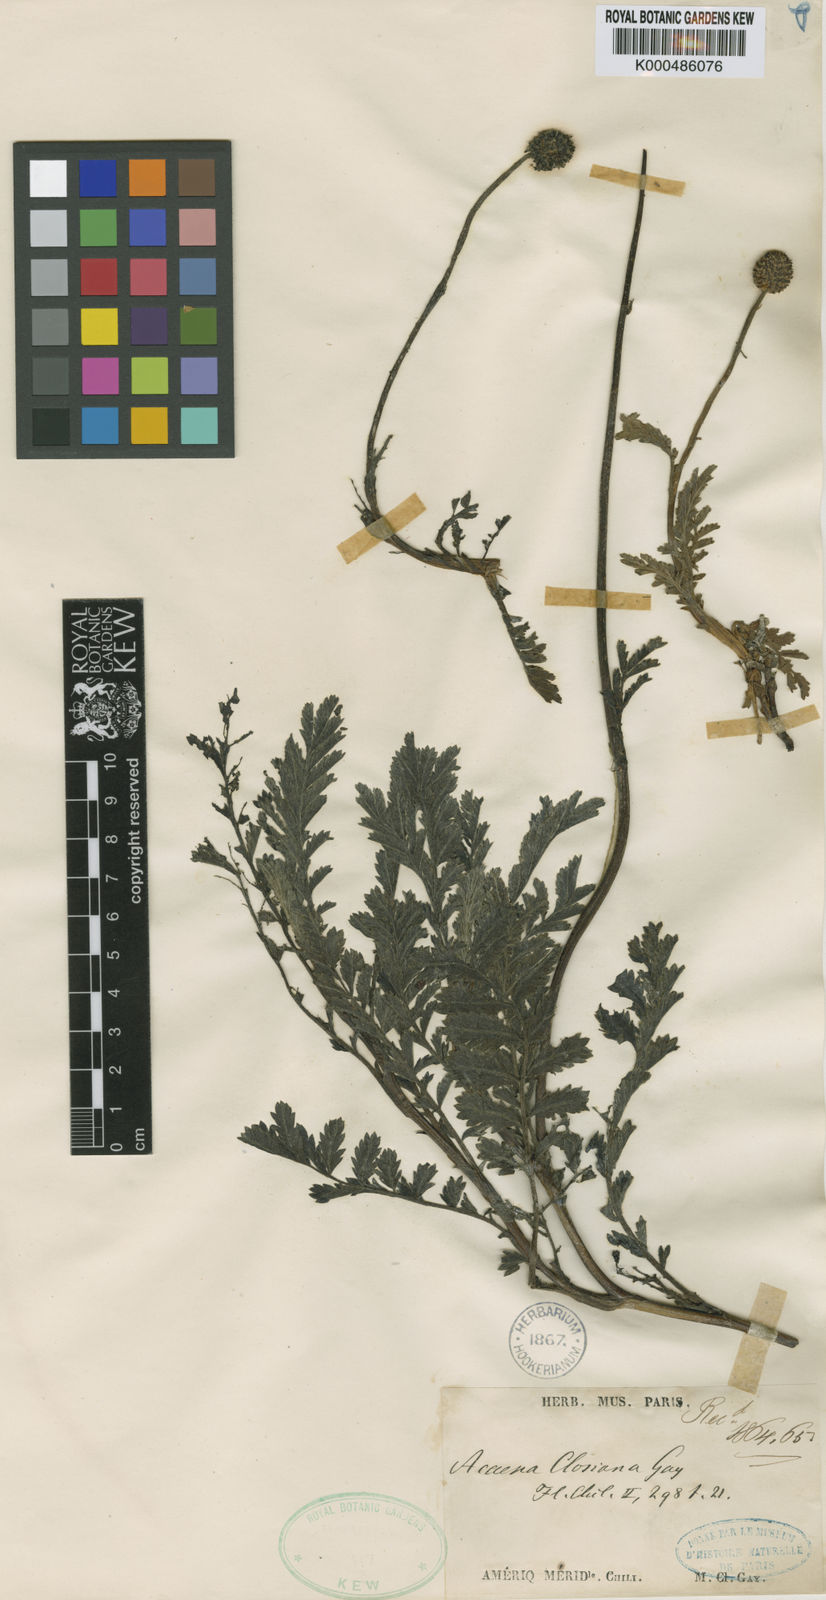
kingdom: Plantae
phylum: Tracheophyta
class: Magnoliopsida
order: Rosales
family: Rosaceae
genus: Acaena
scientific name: Acaena magellanica
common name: New zealand burr
